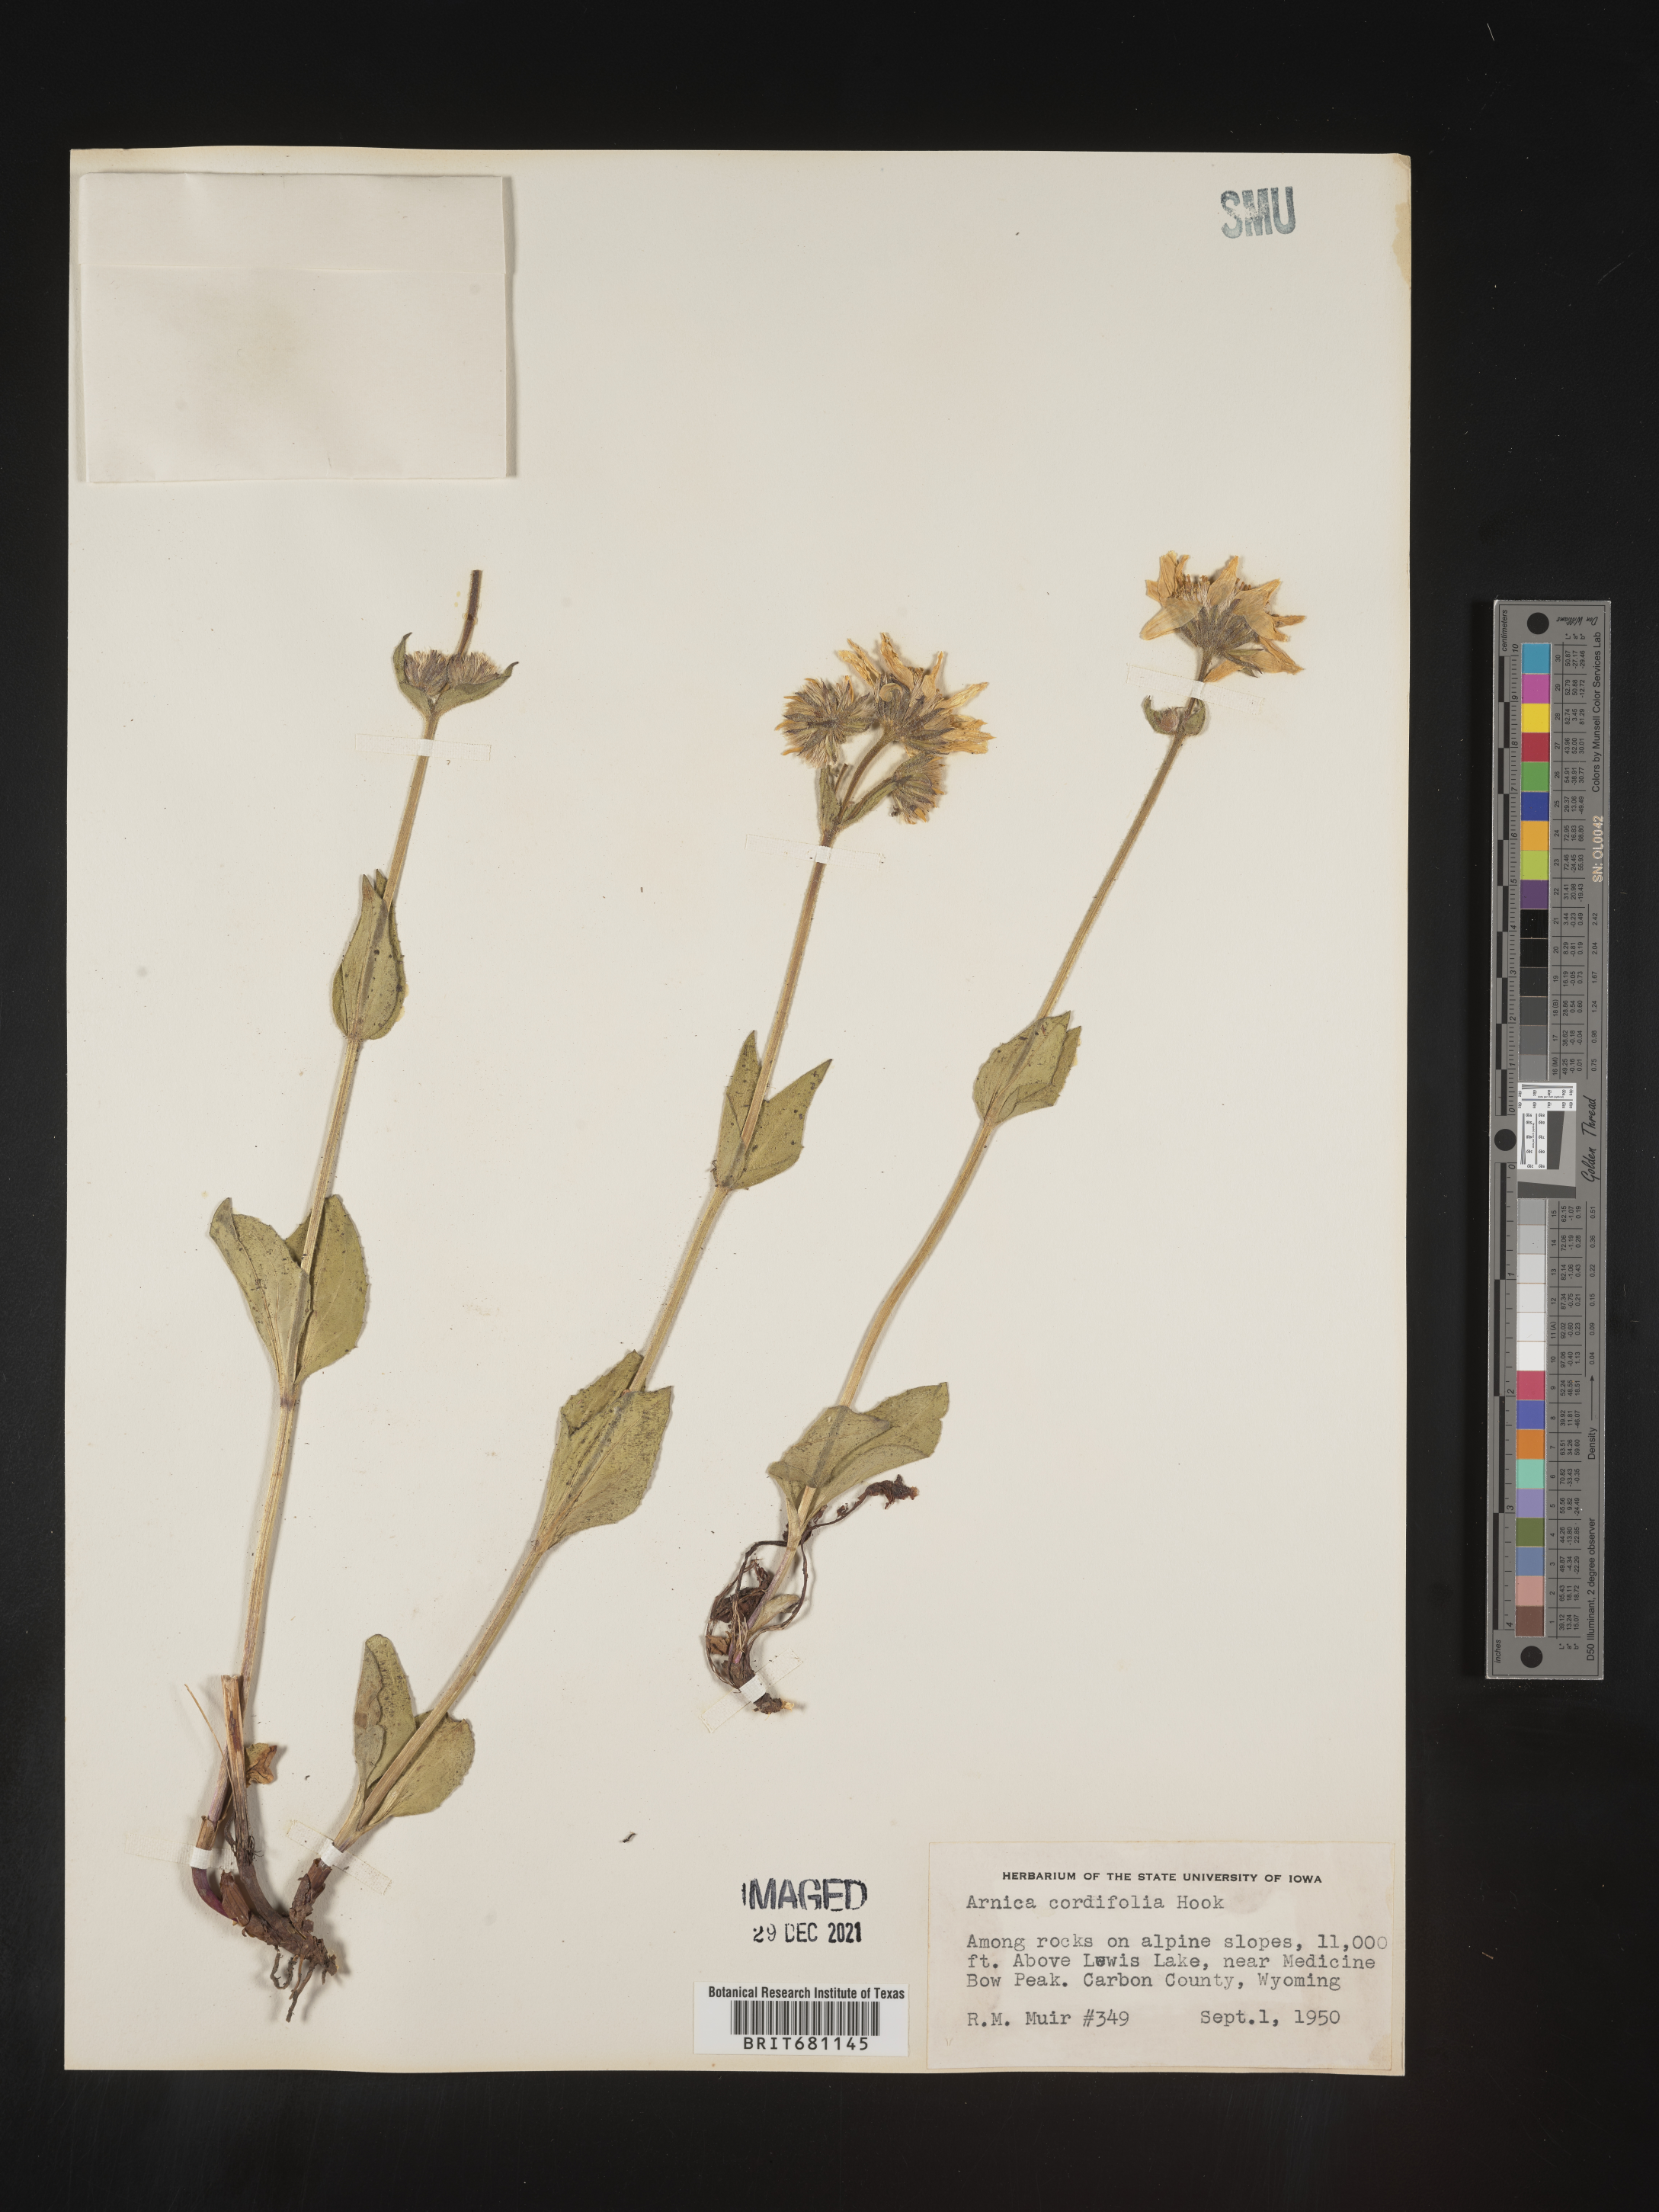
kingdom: Plantae
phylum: Tracheophyta
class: Magnoliopsida
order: Asterales
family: Asteraceae
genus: Arnica
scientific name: Arnica cordifolia
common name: Heart-leaf arnica
